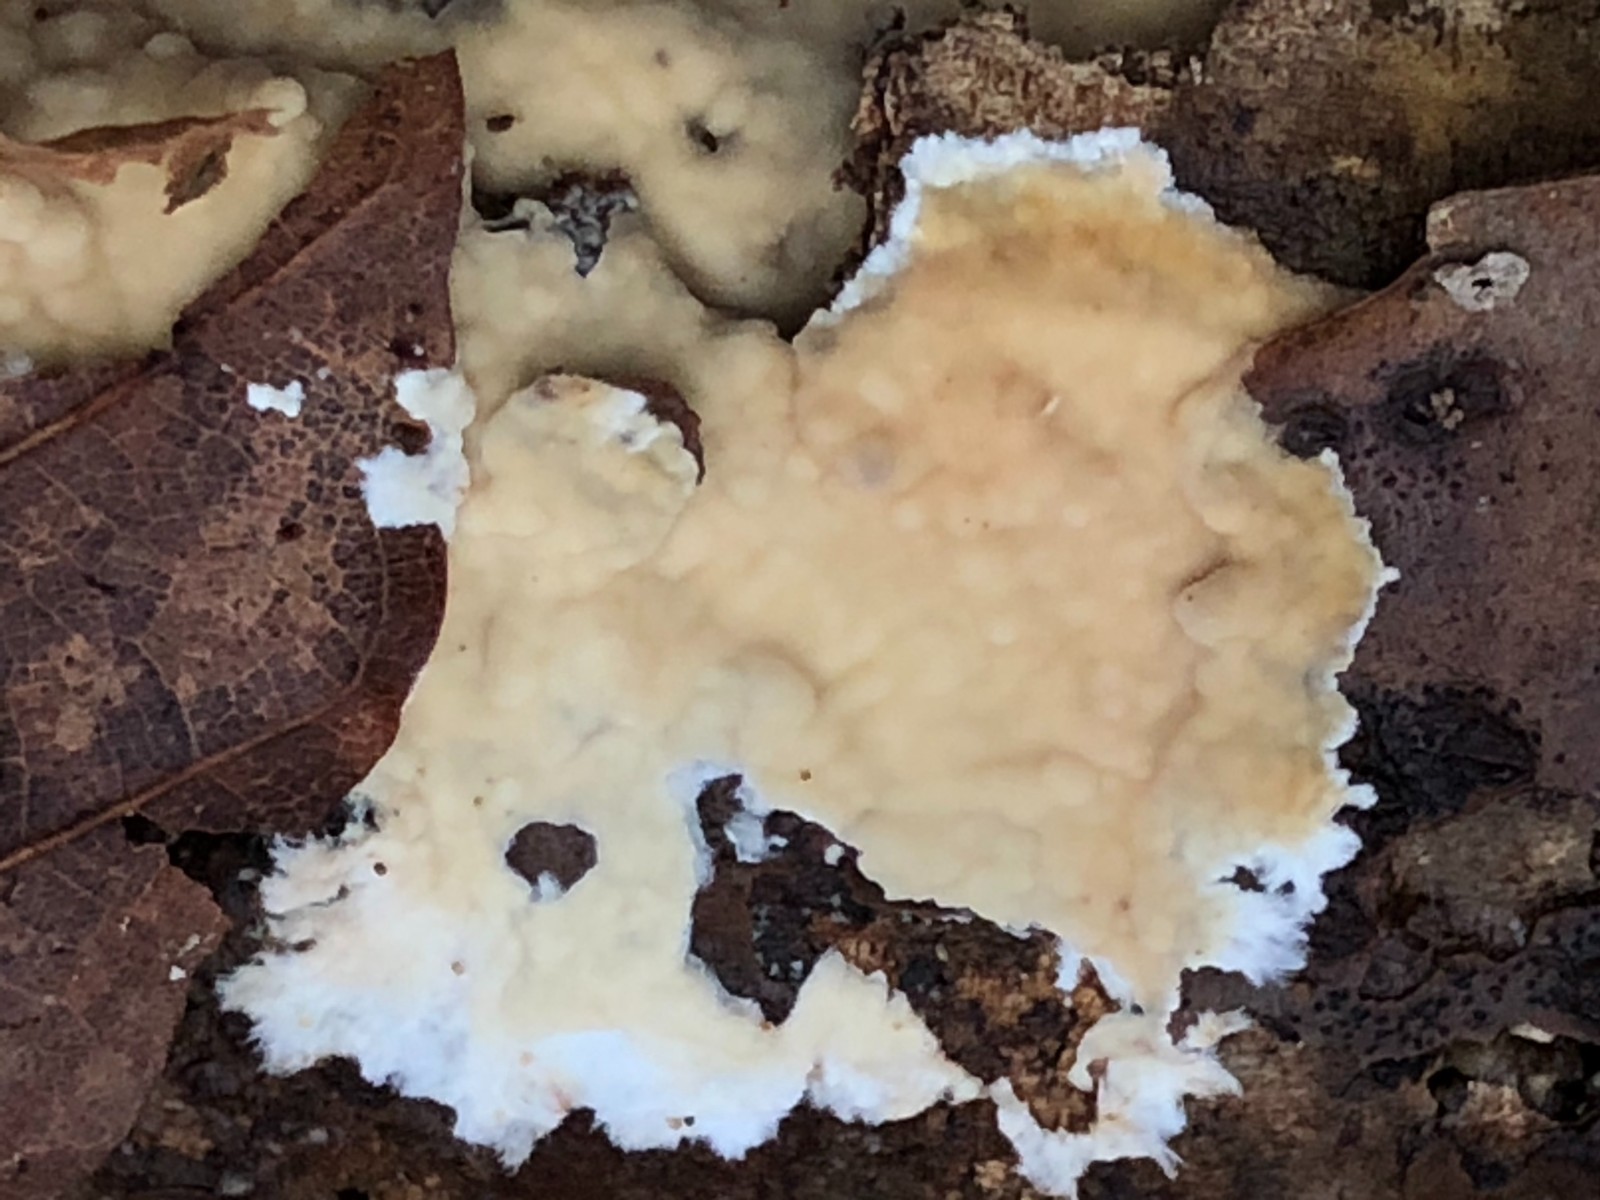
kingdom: Fungi
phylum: Basidiomycota
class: Agaricomycetes
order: Corticiales
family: Corticiaceae
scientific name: Corticiaceae
